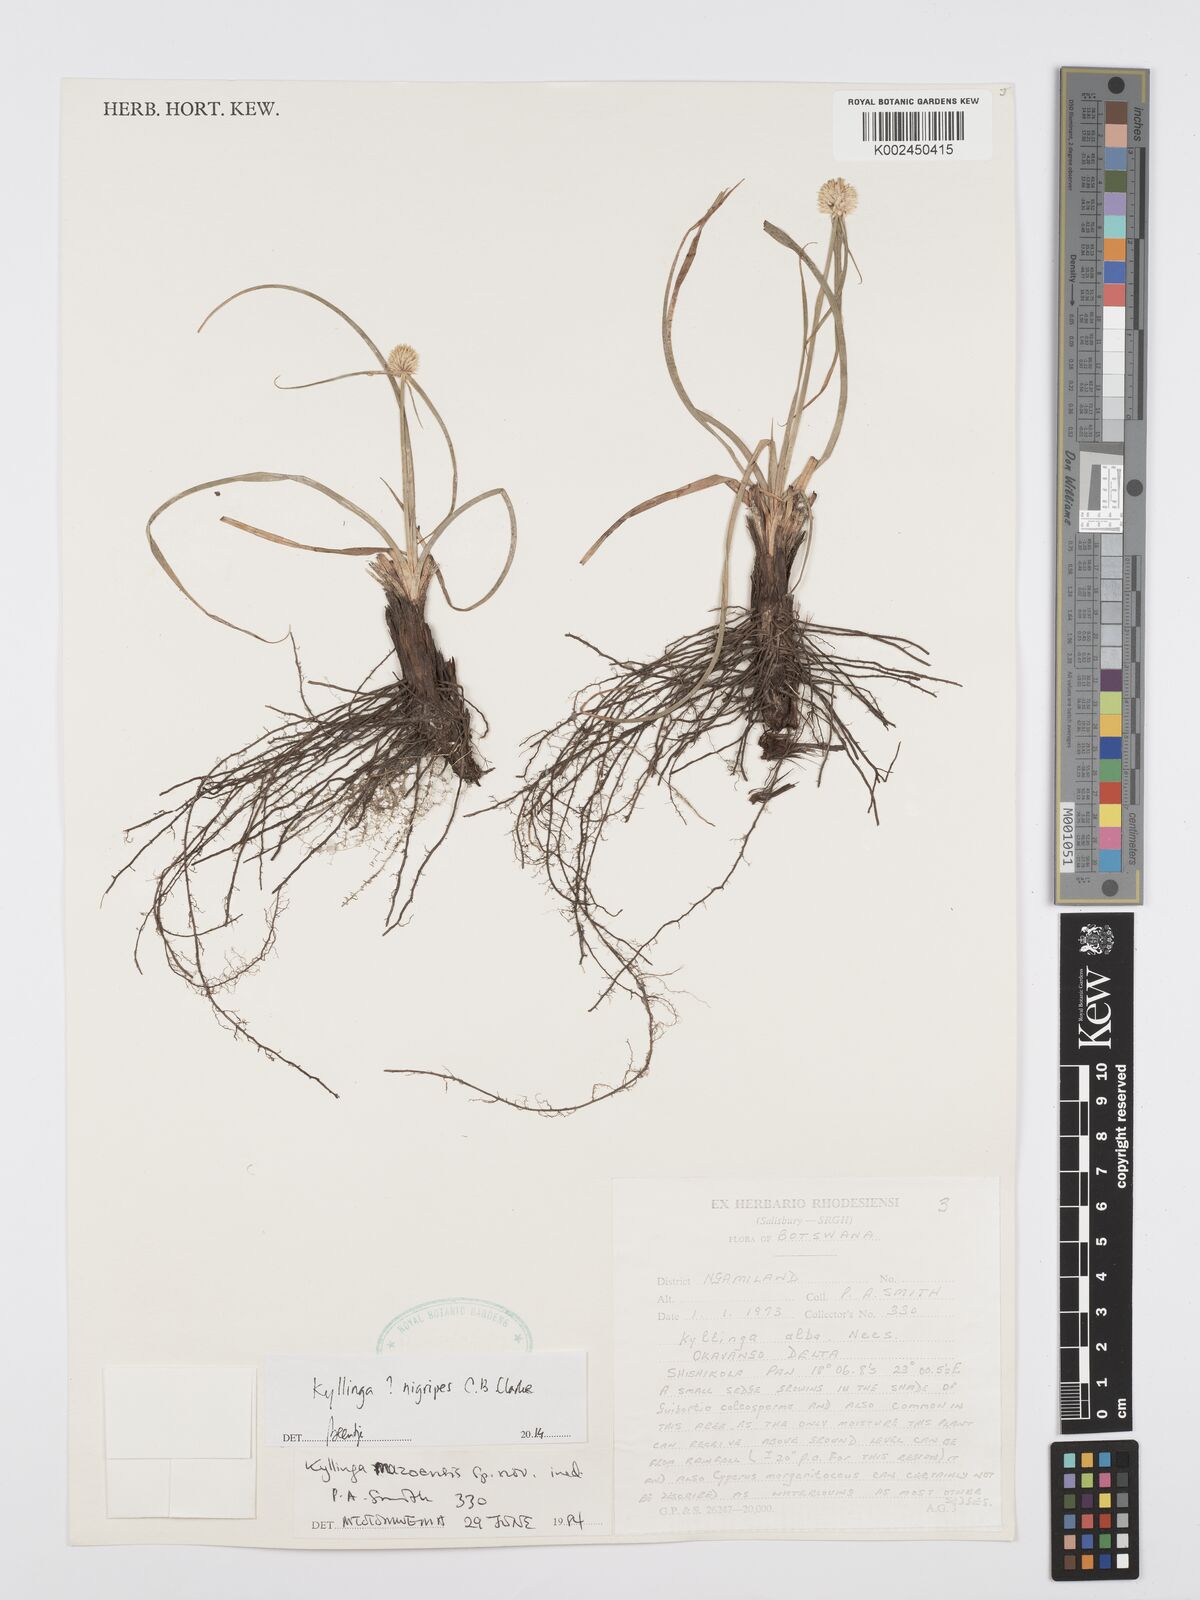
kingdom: Plantae
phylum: Tracheophyta
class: Liliopsida
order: Poales
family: Cyperaceae
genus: Cyperus
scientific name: Cyperus nigripes
